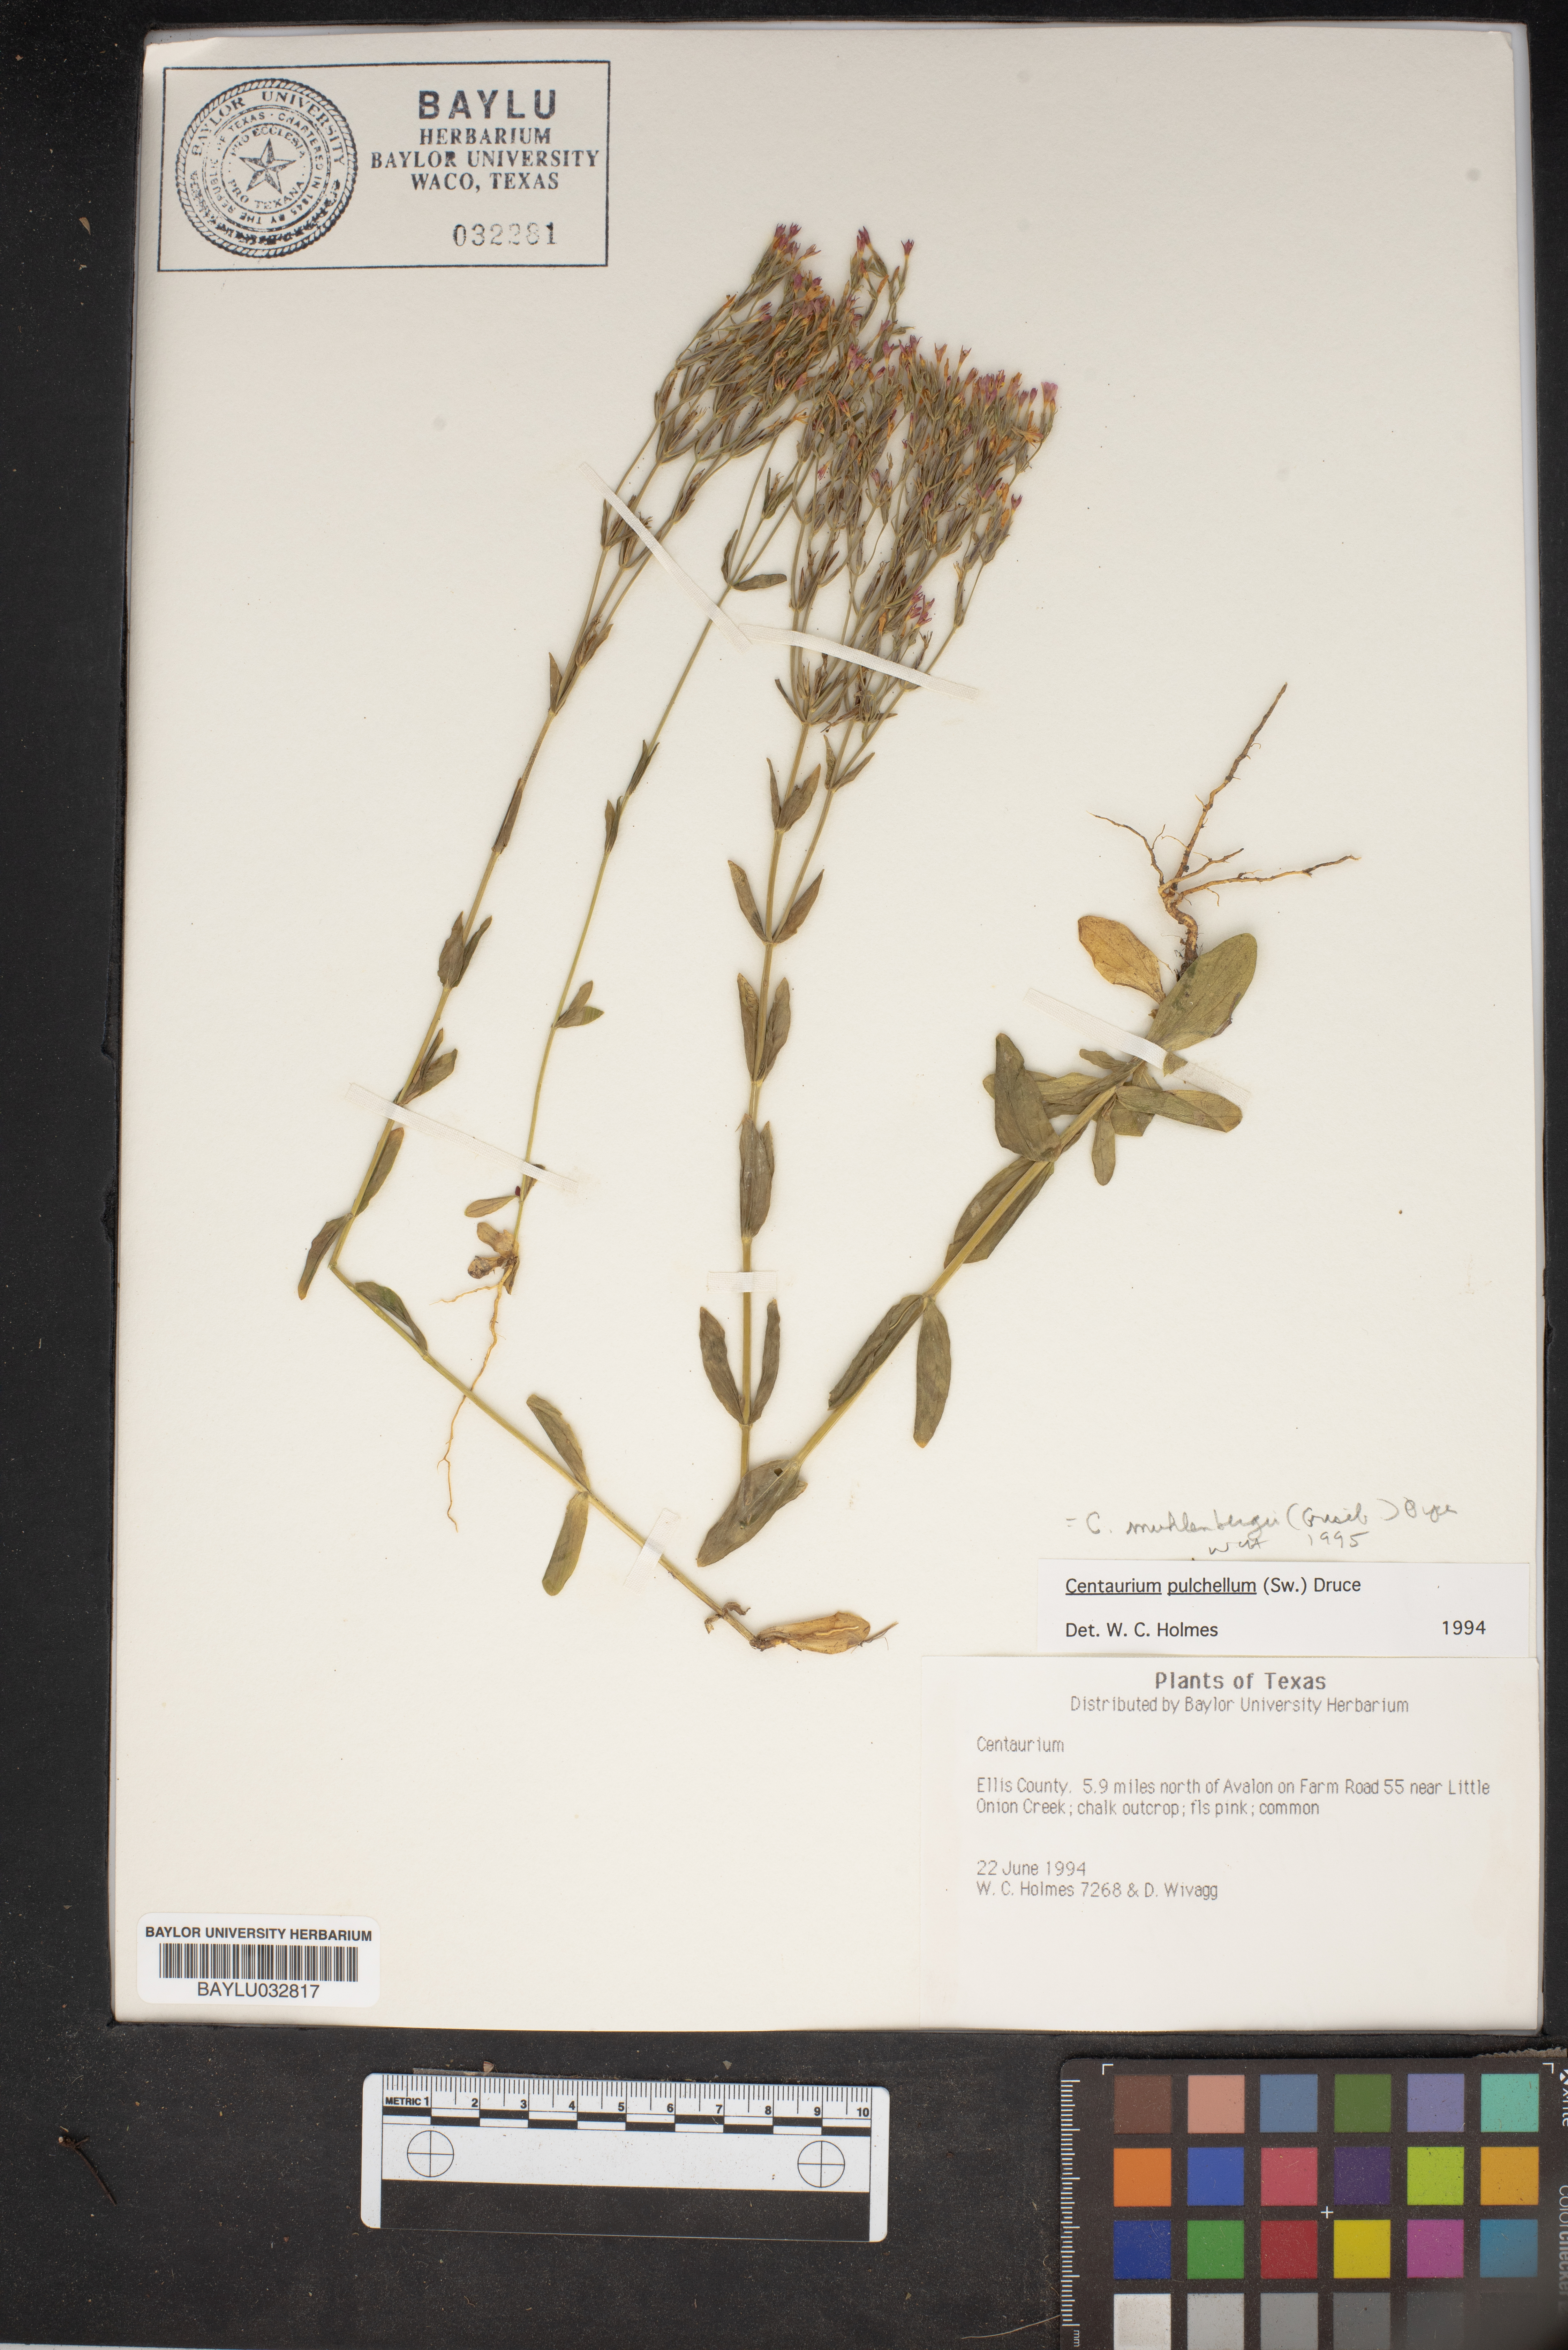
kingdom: Plantae
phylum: Tracheophyta
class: Magnoliopsida
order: Gentianales
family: Gentianaceae
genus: Centaurium
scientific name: Centaurium pulchellum
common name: Lesser centaury
